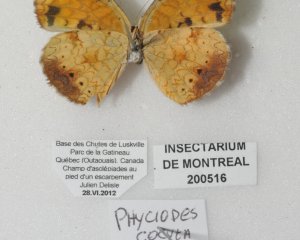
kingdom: Animalia
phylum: Arthropoda
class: Insecta
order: Lepidoptera
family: Nymphalidae
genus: Phyciodes
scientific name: Phyciodes tharos
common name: Northern Crescent
